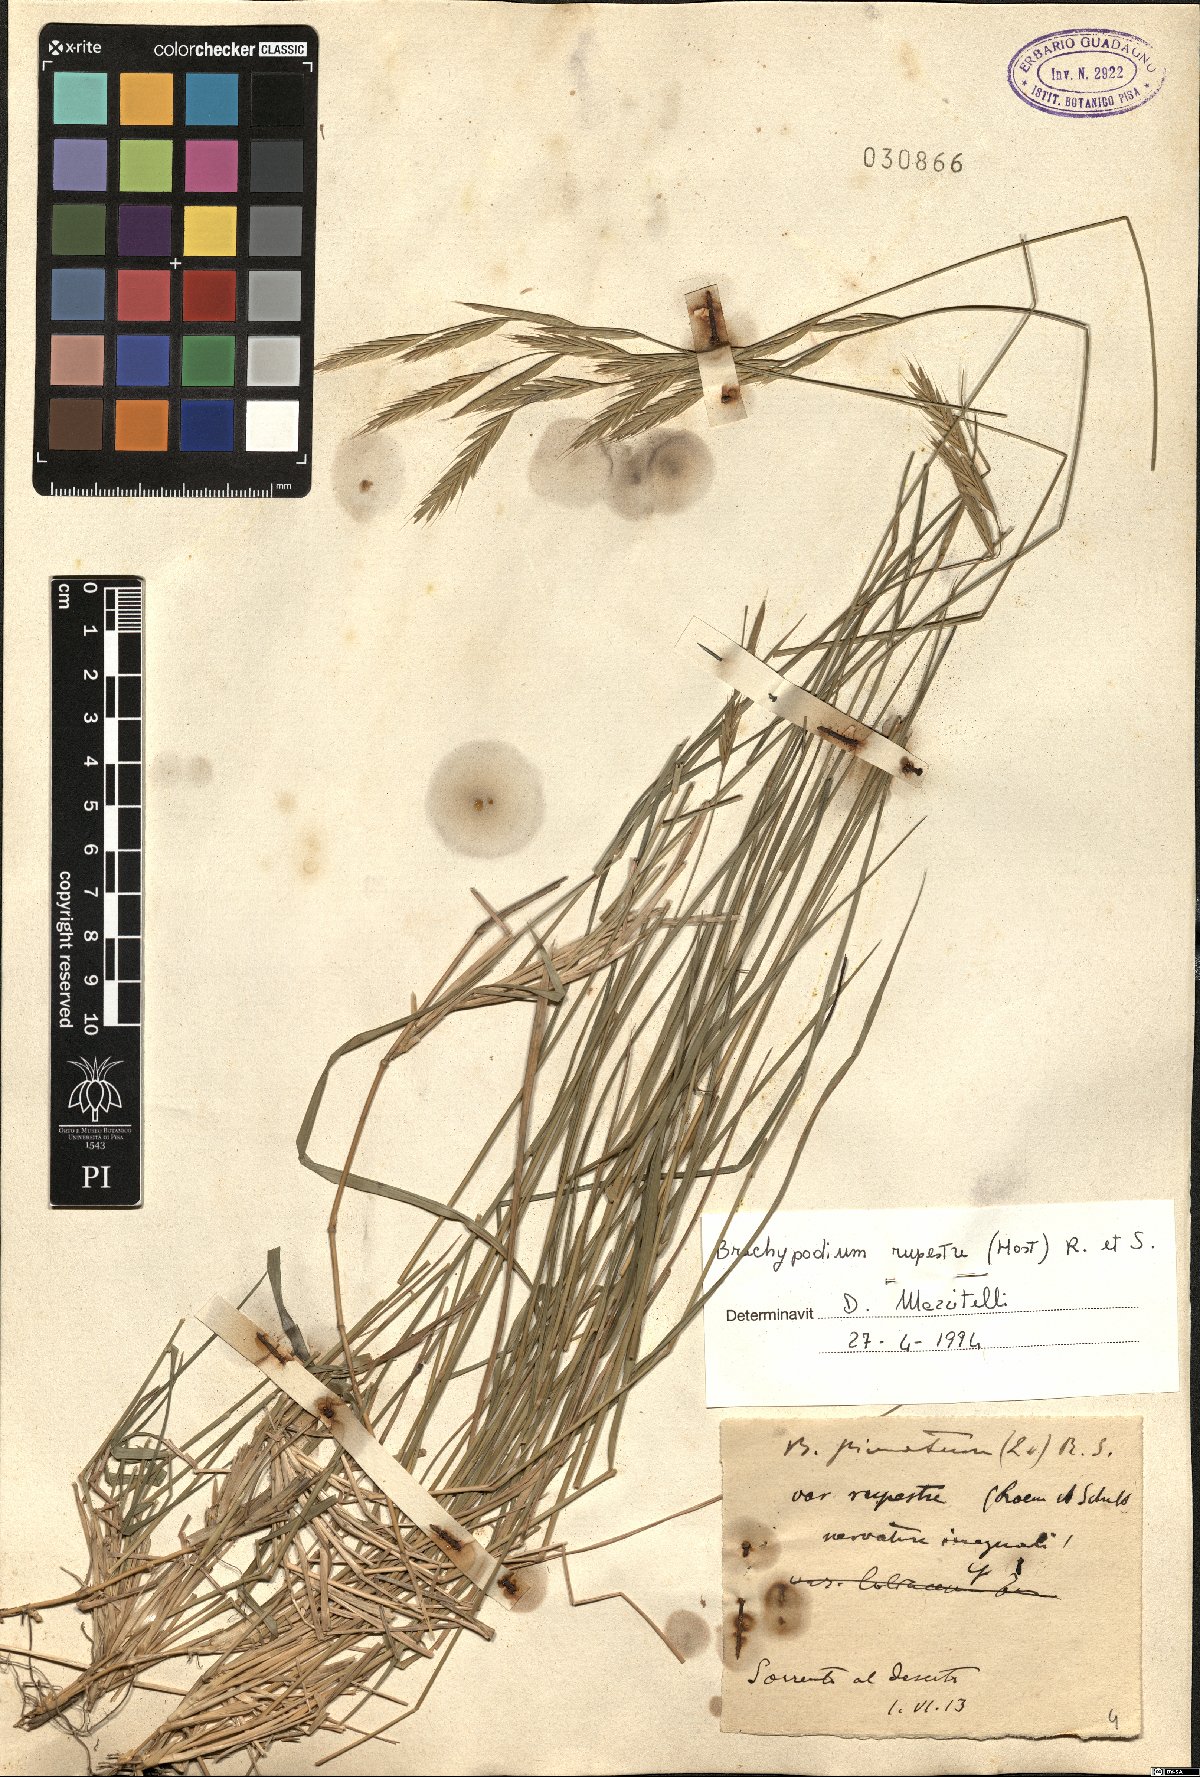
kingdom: Plantae
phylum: Tracheophyta
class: Liliopsida
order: Poales
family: Poaceae
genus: Brachypodium
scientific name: Brachypodium pinnatum
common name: Tor grass
